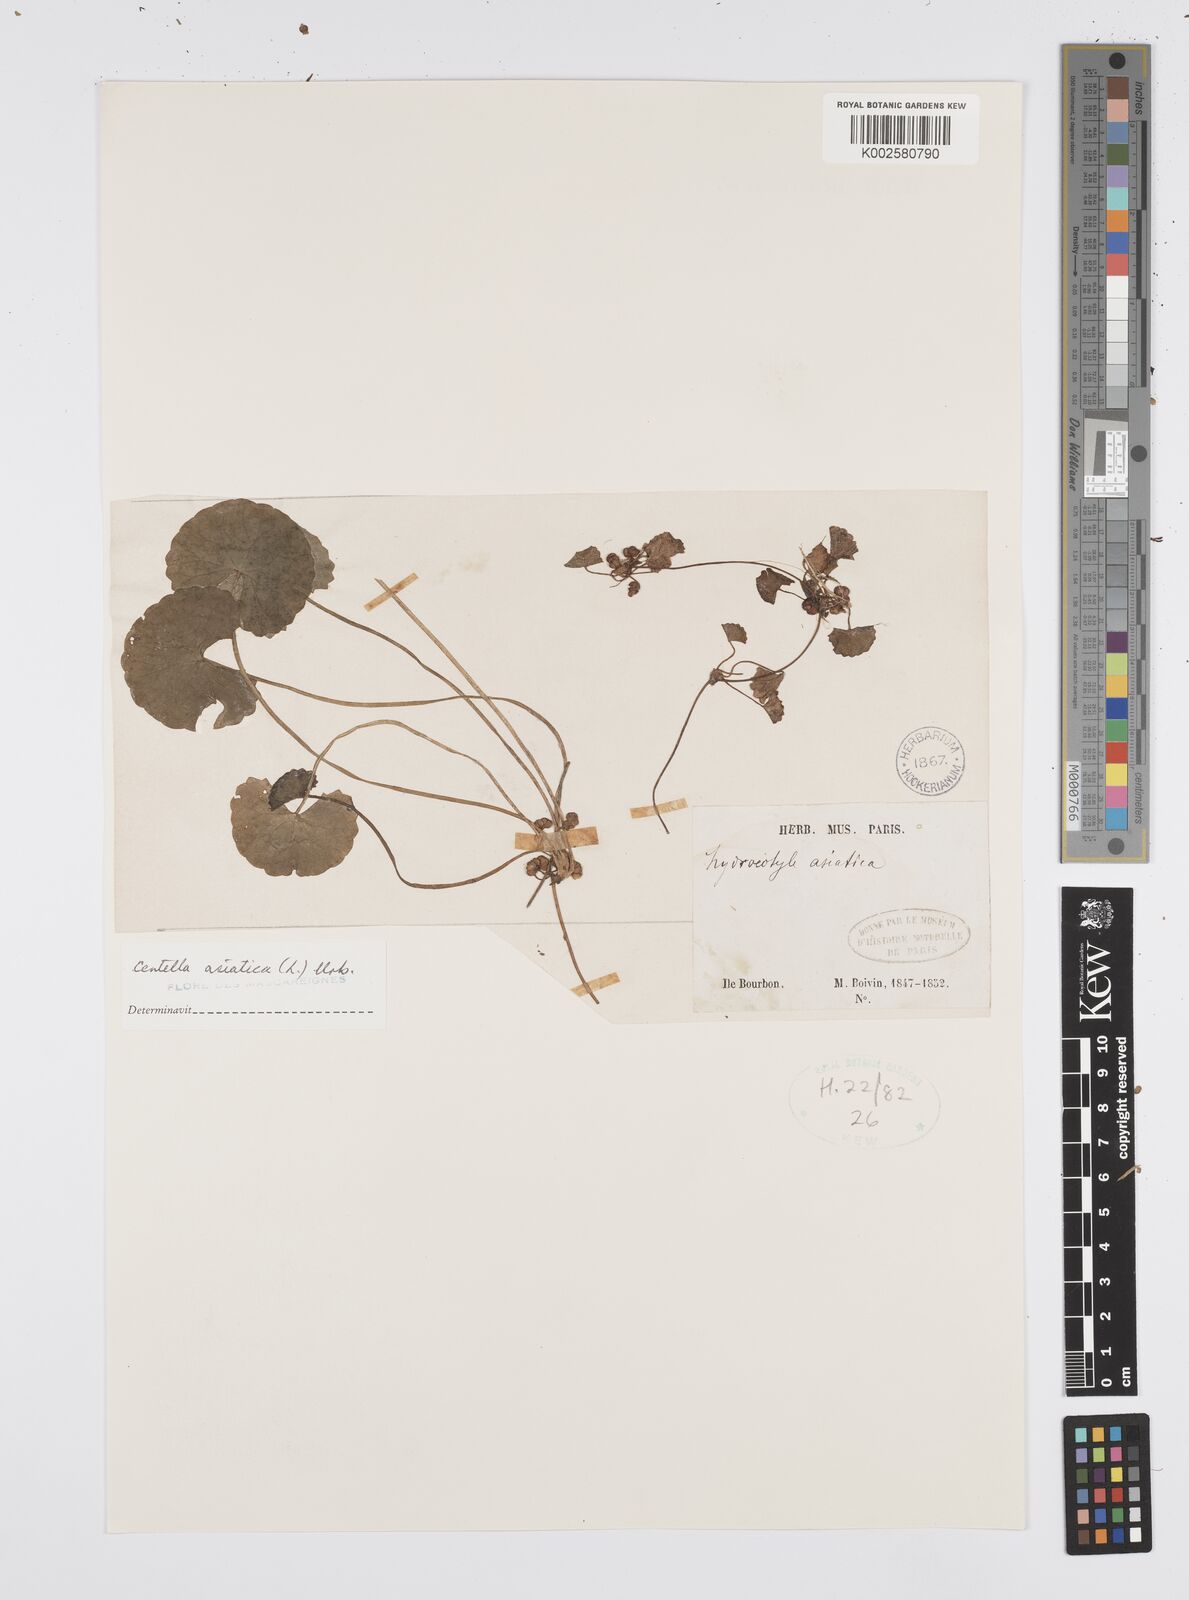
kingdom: Plantae
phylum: Tracheophyta
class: Magnoliopsida
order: Apiales
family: Apiaceae
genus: Centella
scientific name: Centella asiatica
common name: Spadeleaf
